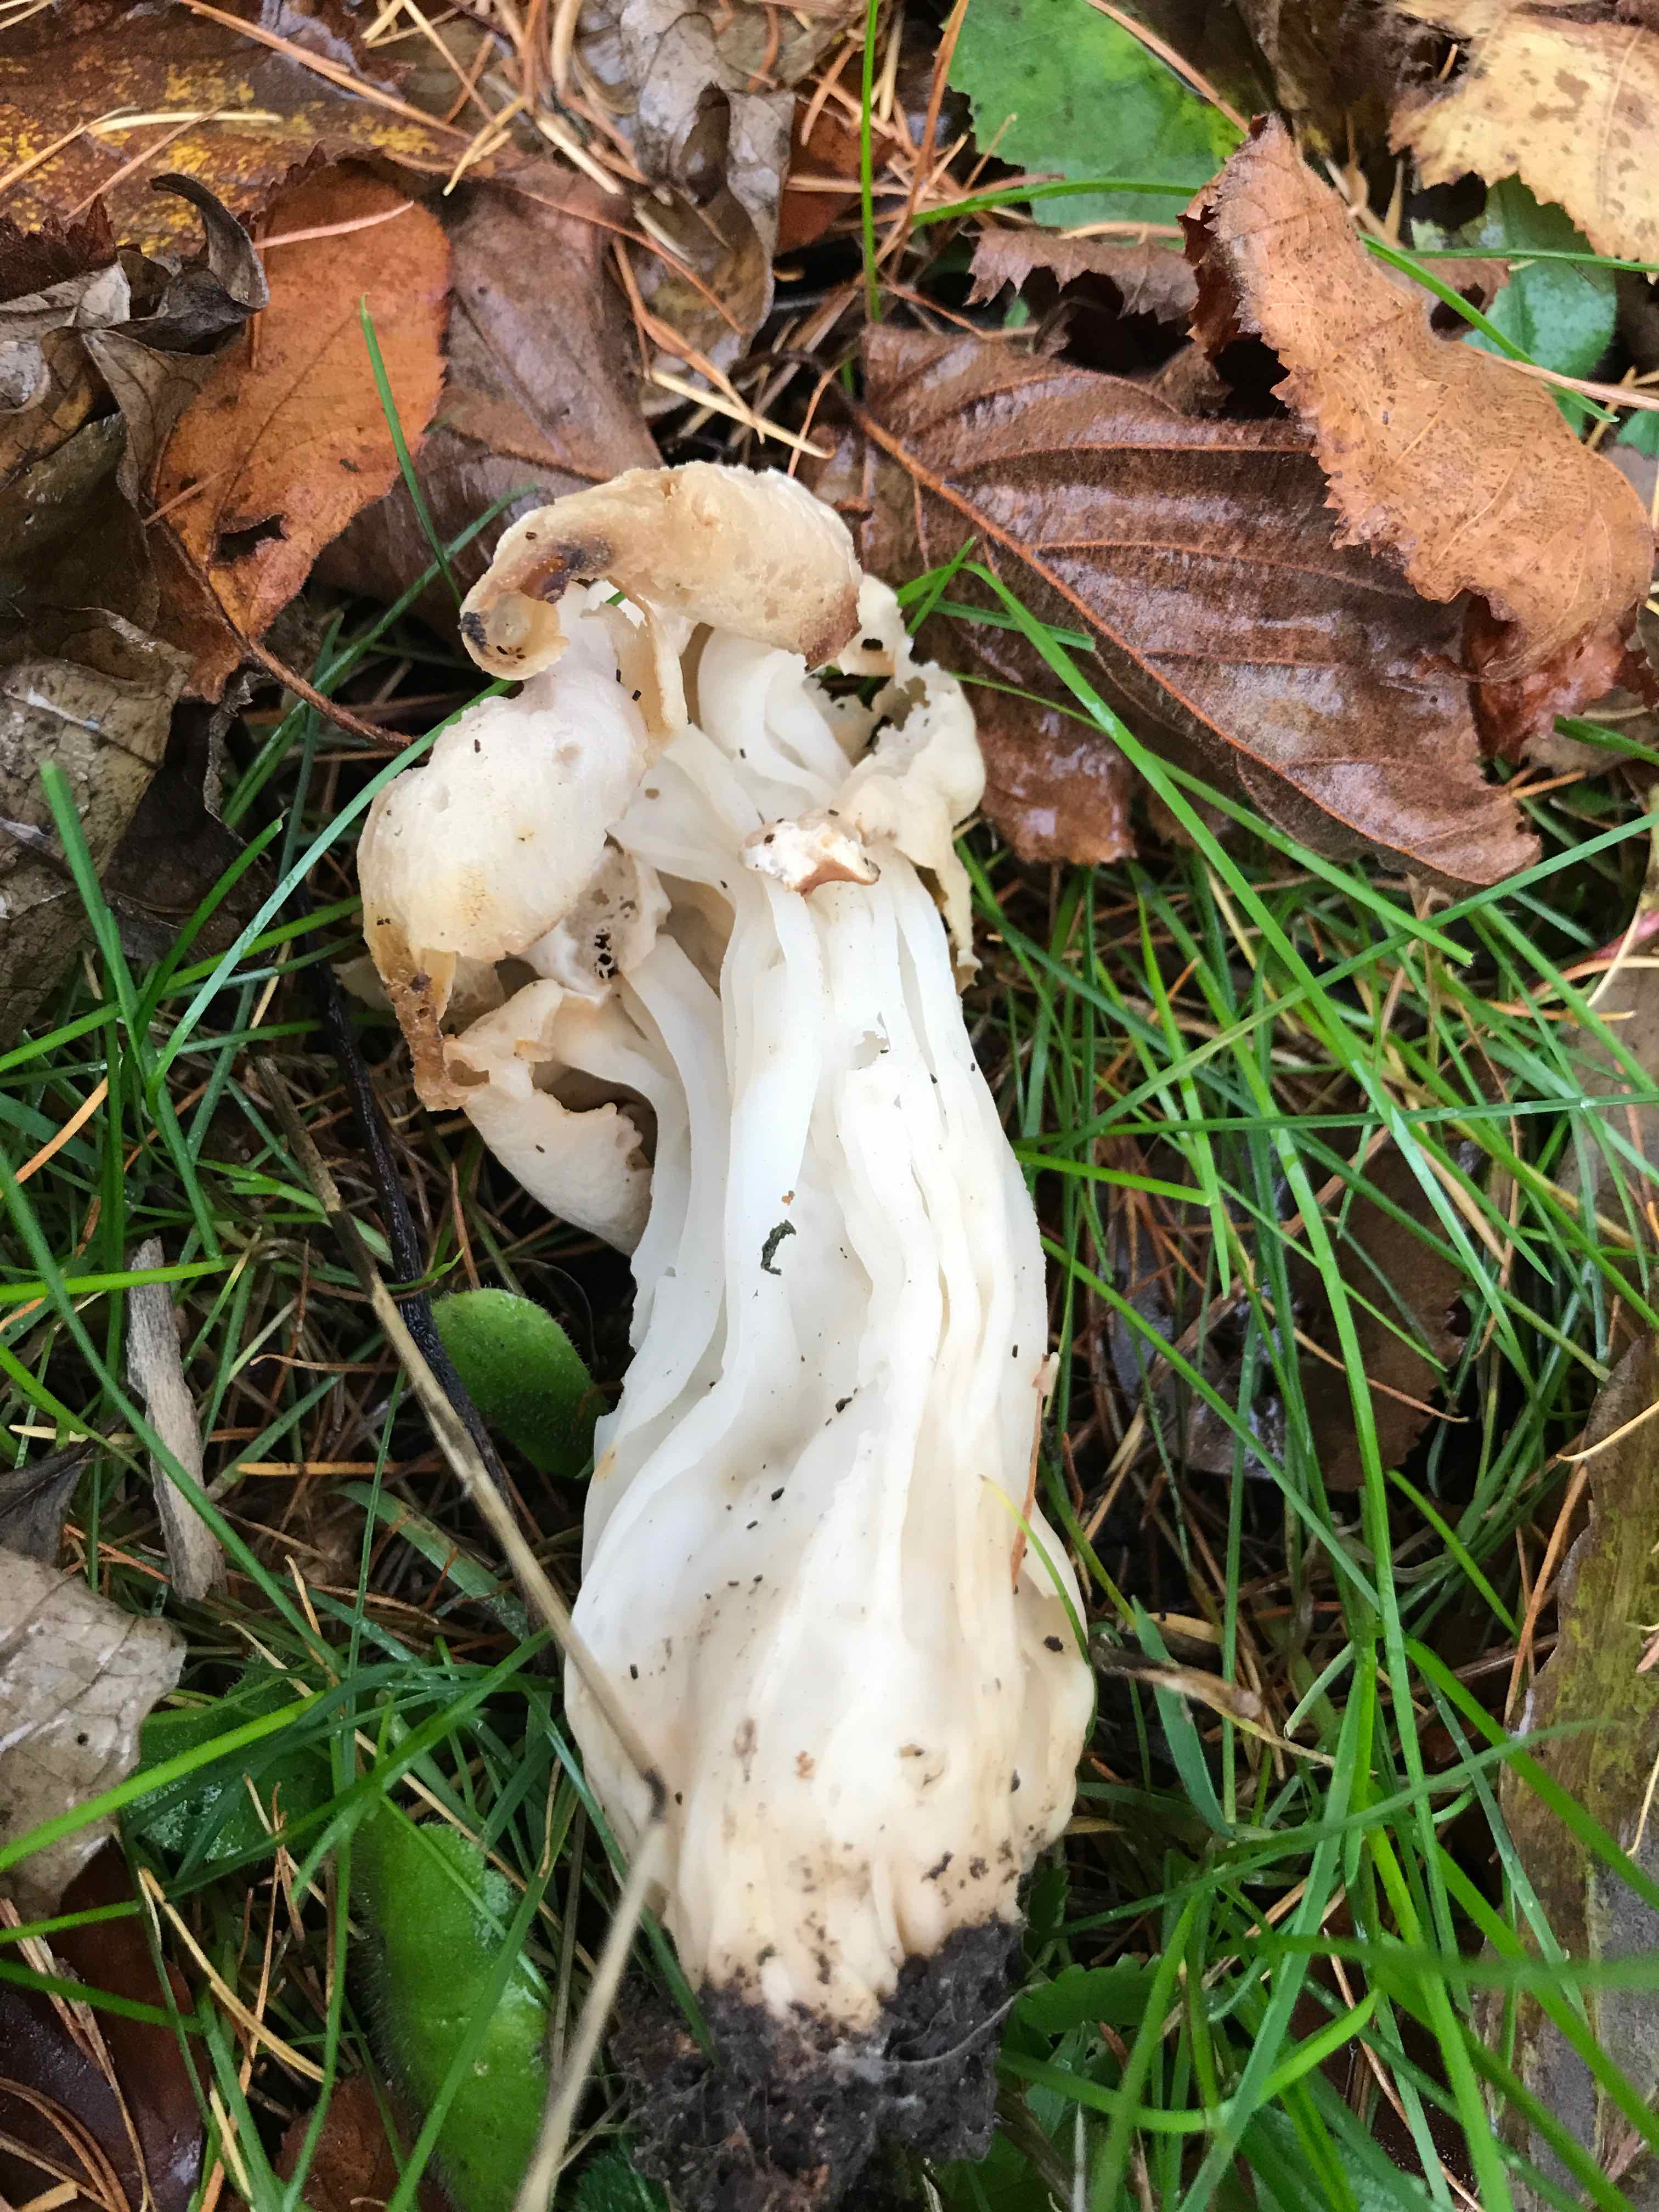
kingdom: Fungi
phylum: Ascomycota
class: Pezizomycetes
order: Pezizales
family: Helvellaceae
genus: Helvella
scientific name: Helvella crispa
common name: kruset foldhat
